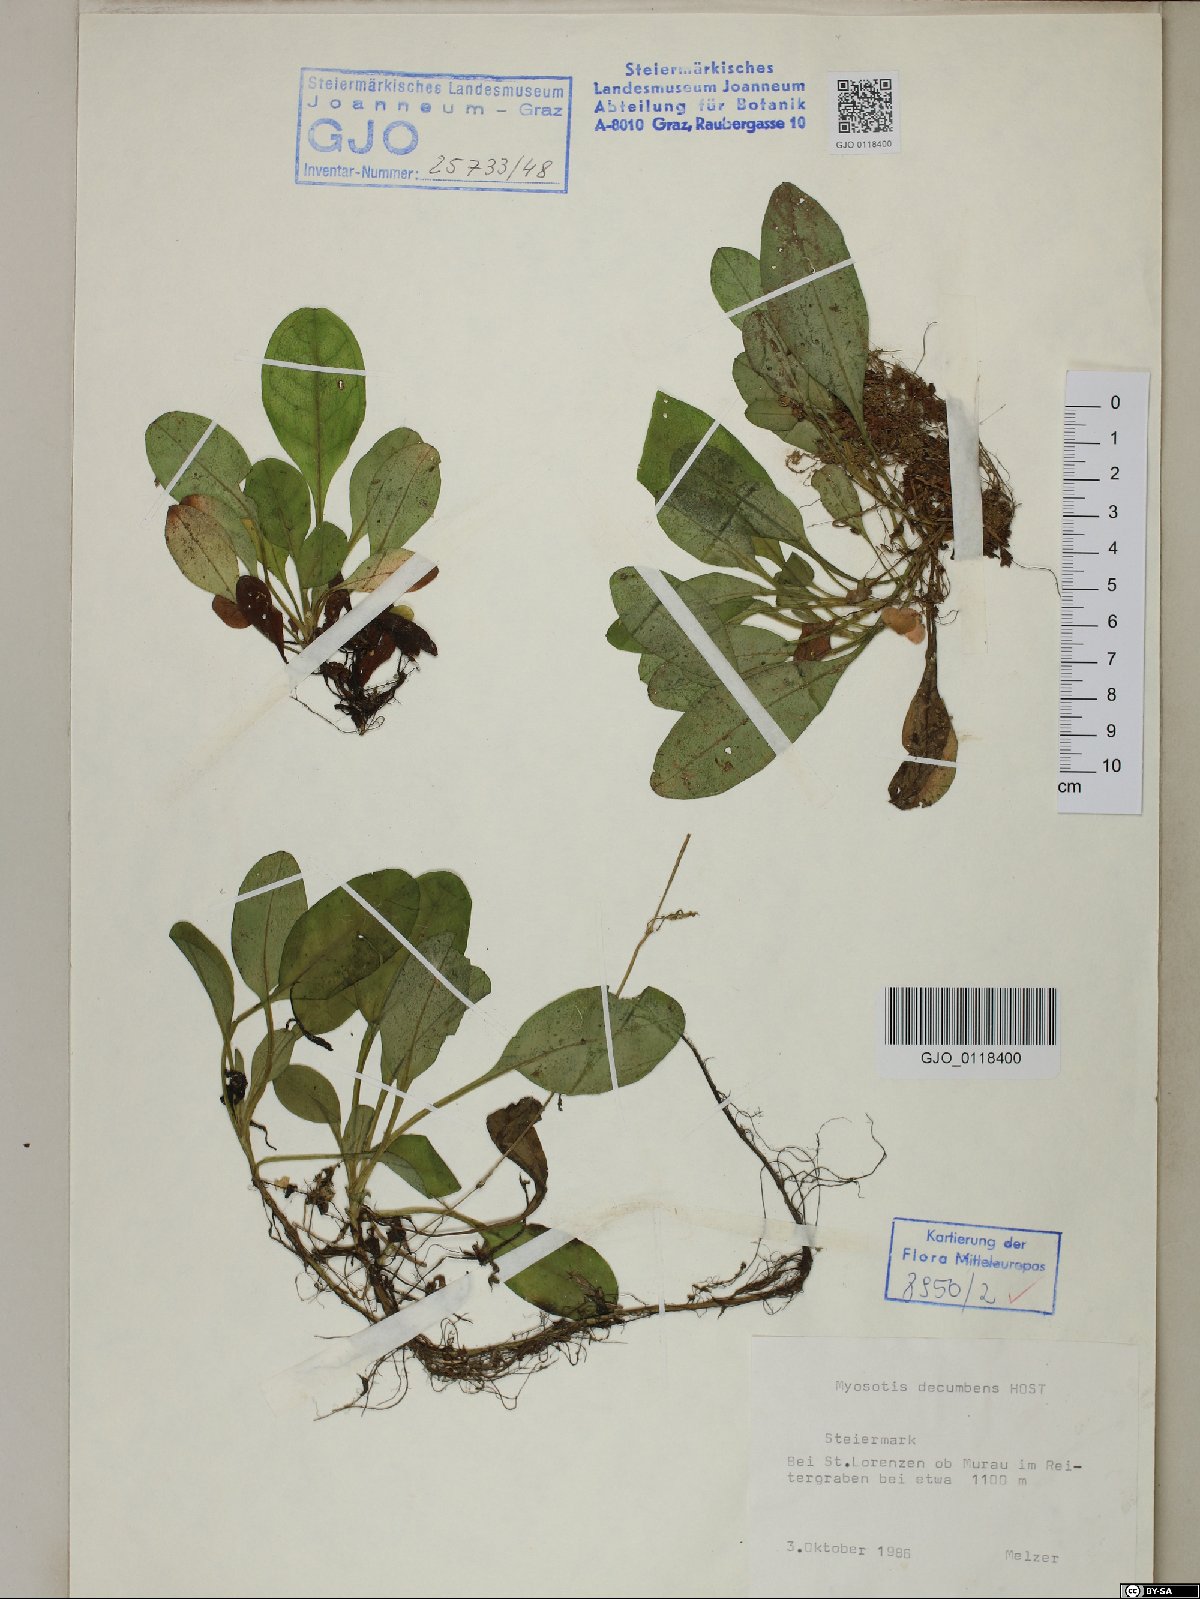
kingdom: Plantae
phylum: Tracheophyta
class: Magnoliopsida
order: Boraginales
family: Boraginaceae
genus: Myosotis
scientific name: Myosotis decumbens
